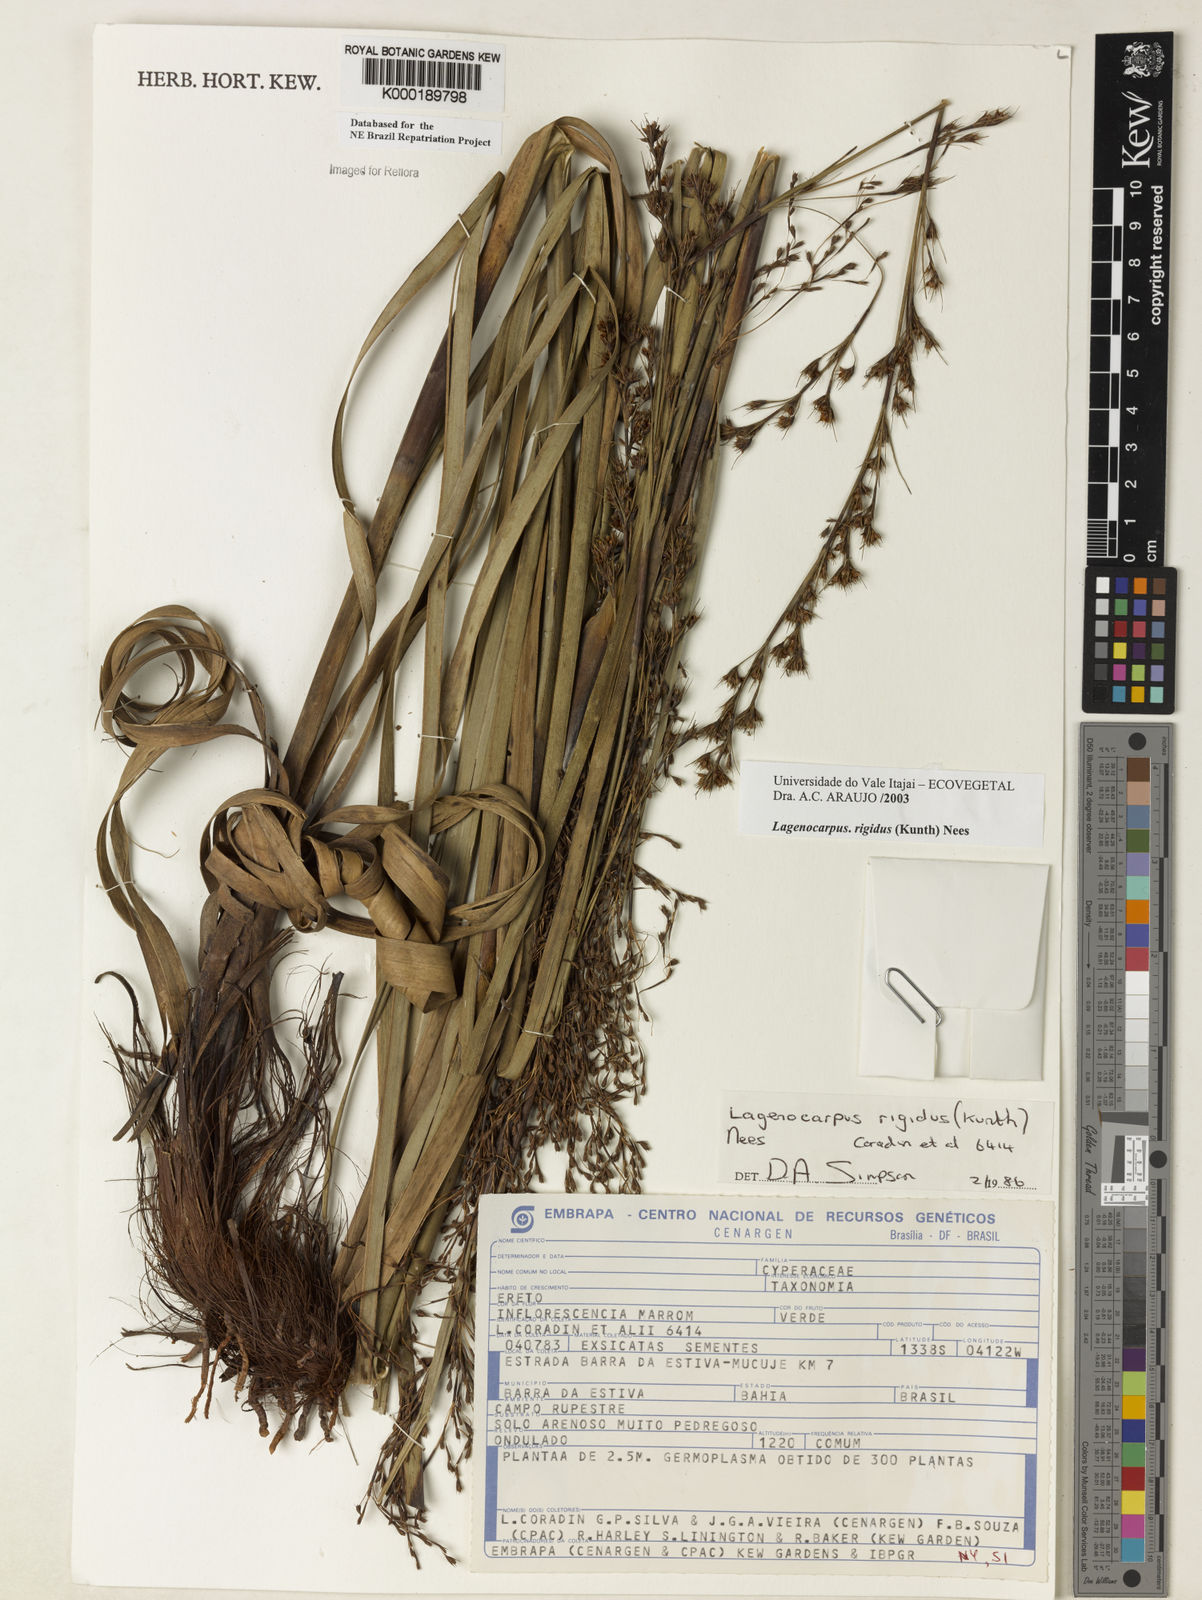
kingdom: Plantae
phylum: Tracheophyta
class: Liliopsida
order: Poales
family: Cyperaceae
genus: Lagenocarpus
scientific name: Lagenocarpus rigidus
